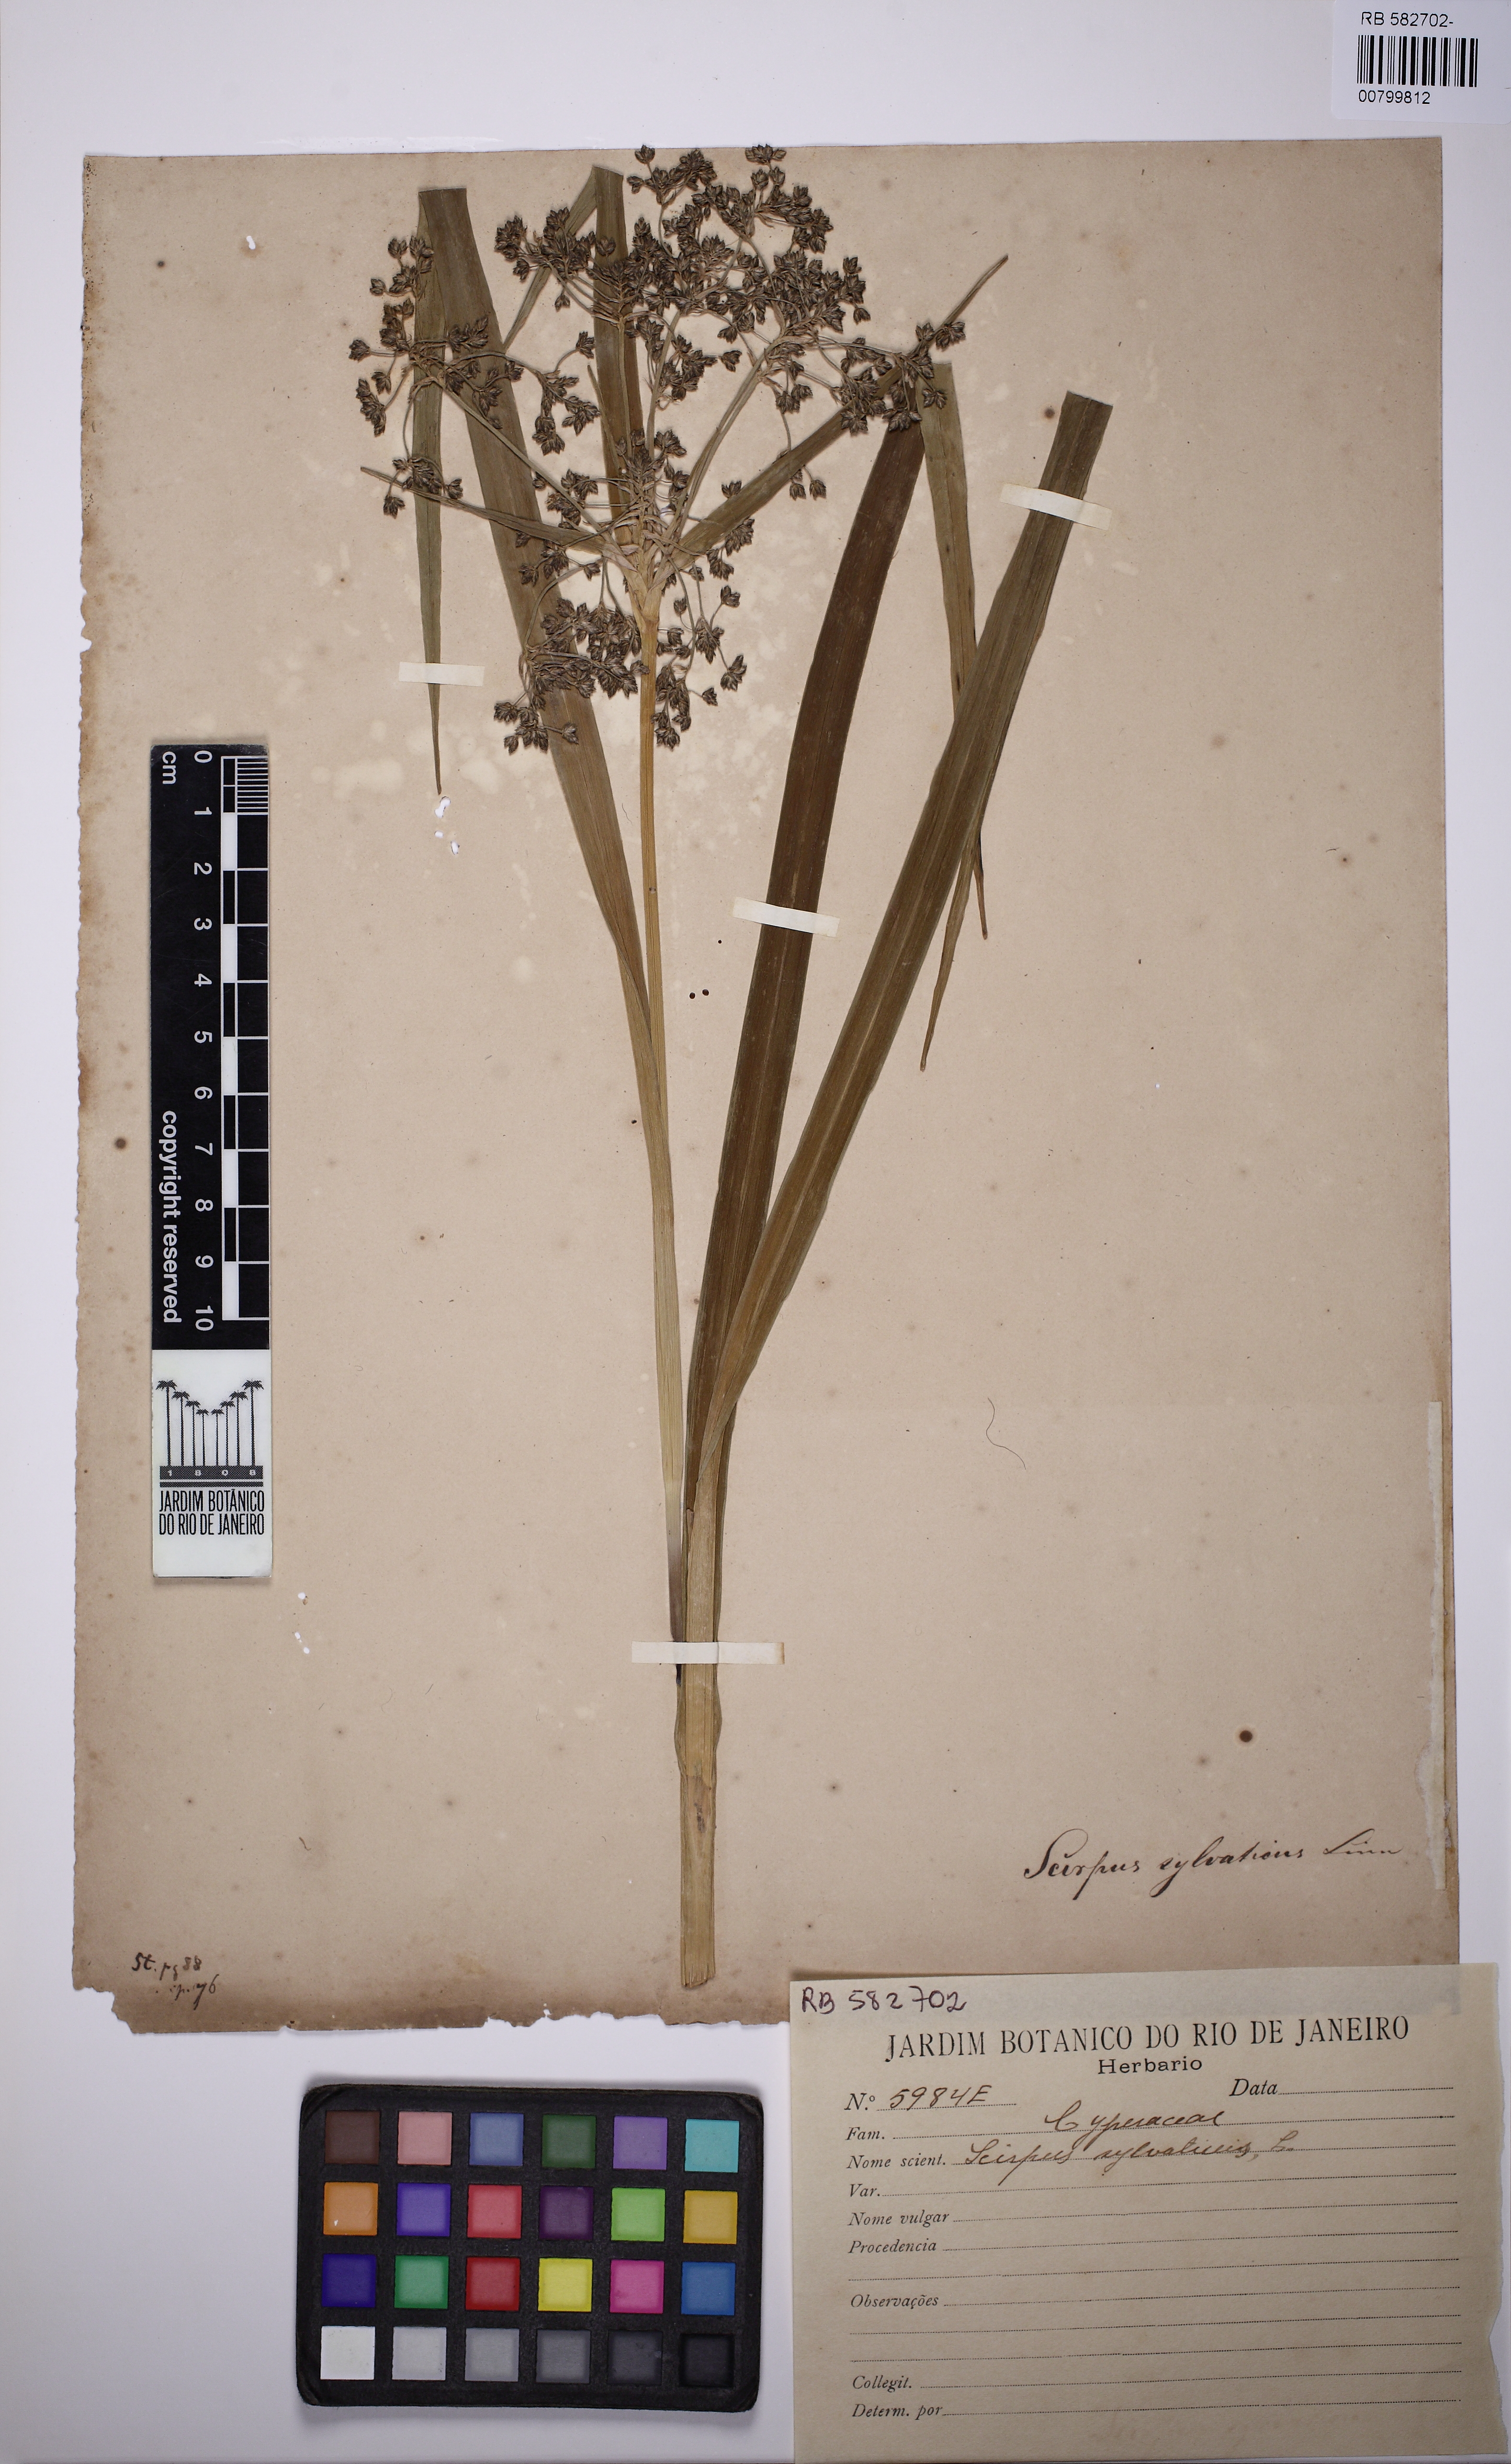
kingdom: Plantae
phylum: Tracheophyta
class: Liliopsida
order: Poales
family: Cyperaceae
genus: Scirpus
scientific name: Scirpus sylvaticus
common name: Wood club-rush
